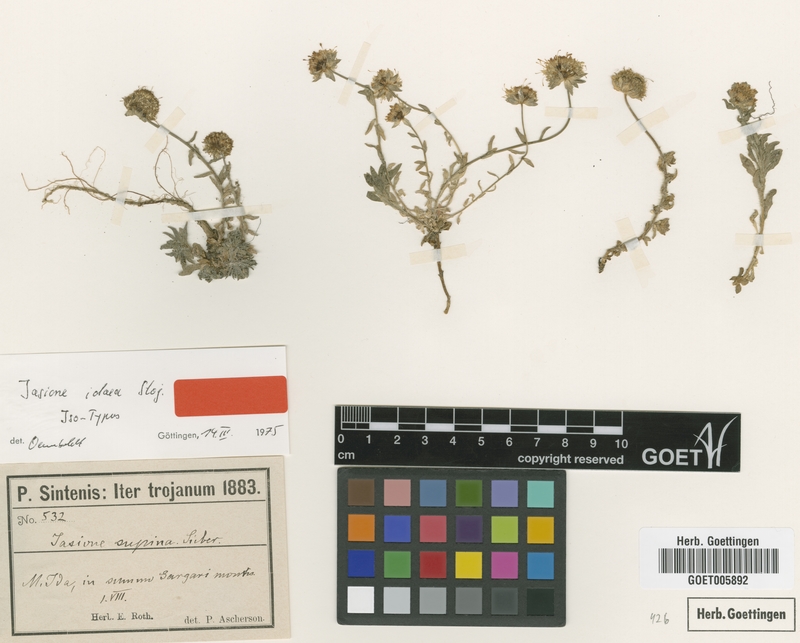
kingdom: Plantae
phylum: Tracheophyta
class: Magnoliopsida
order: Asterales
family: Campanulaceae
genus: Jasione
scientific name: Jasione idaea
